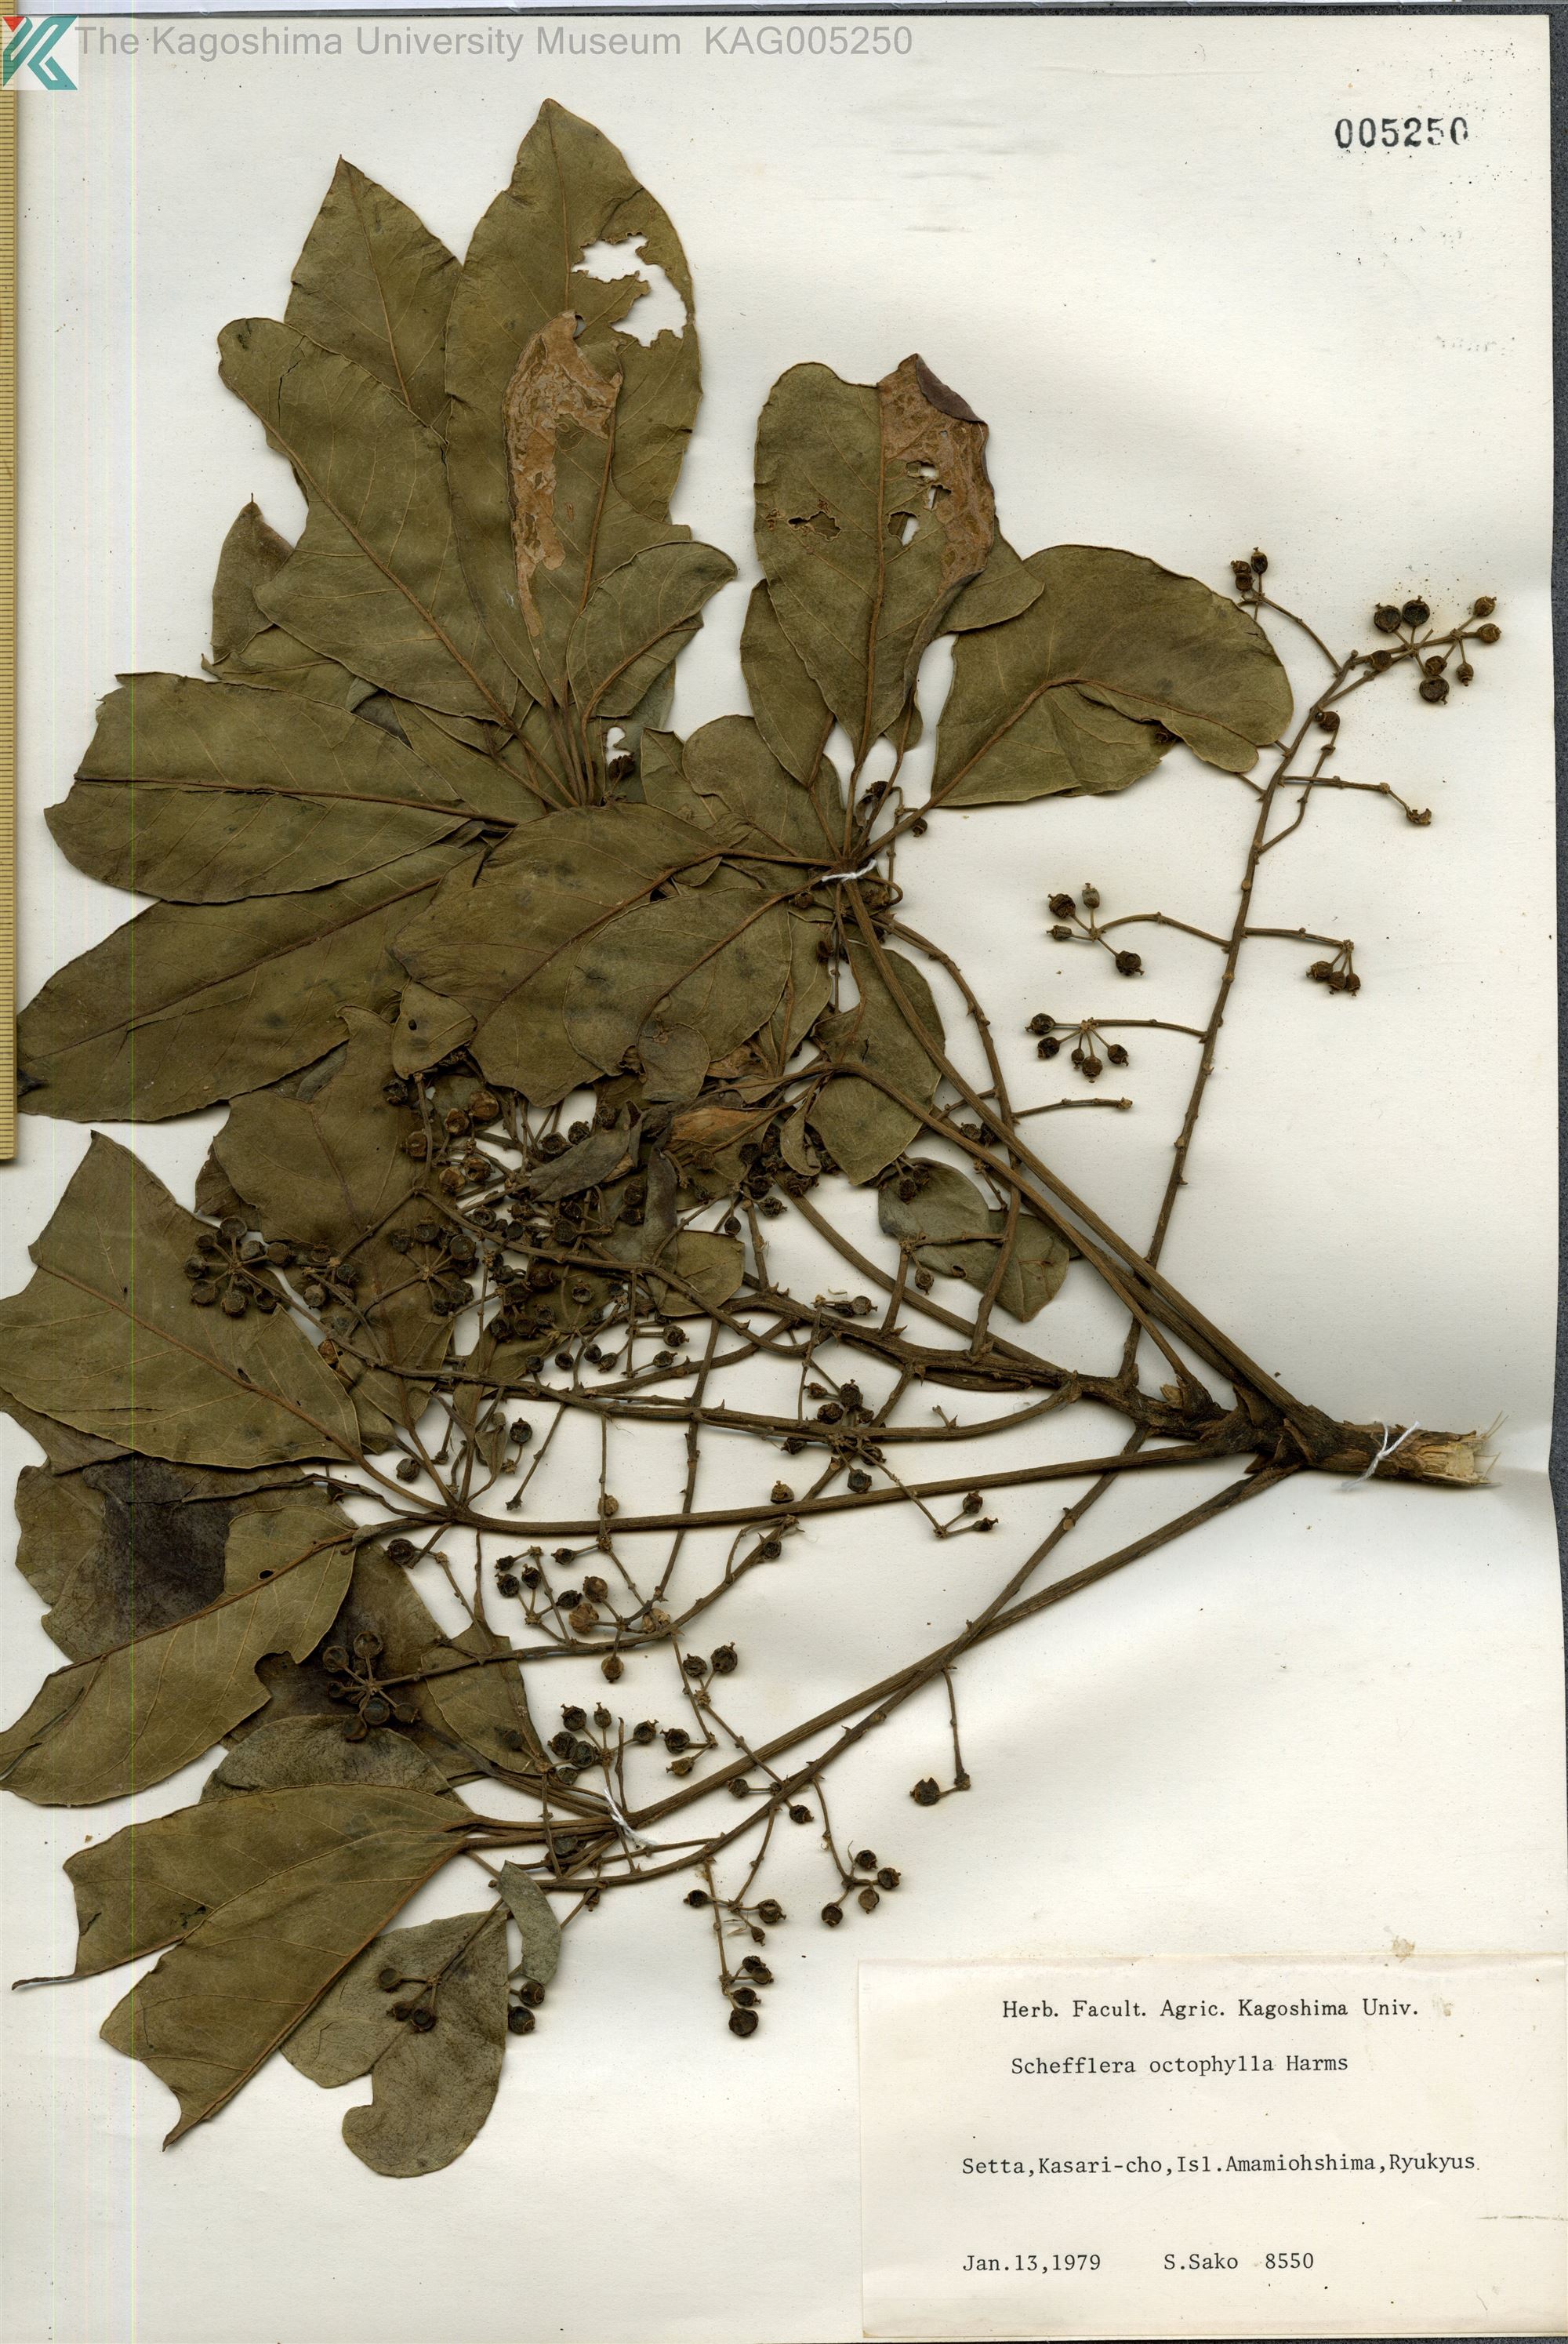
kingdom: Plantae
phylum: Tracheophyta
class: Magnoliopsida
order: Apiales
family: Araliaceae
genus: Heptapleurum
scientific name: Heptapleurum heptaphyllum
